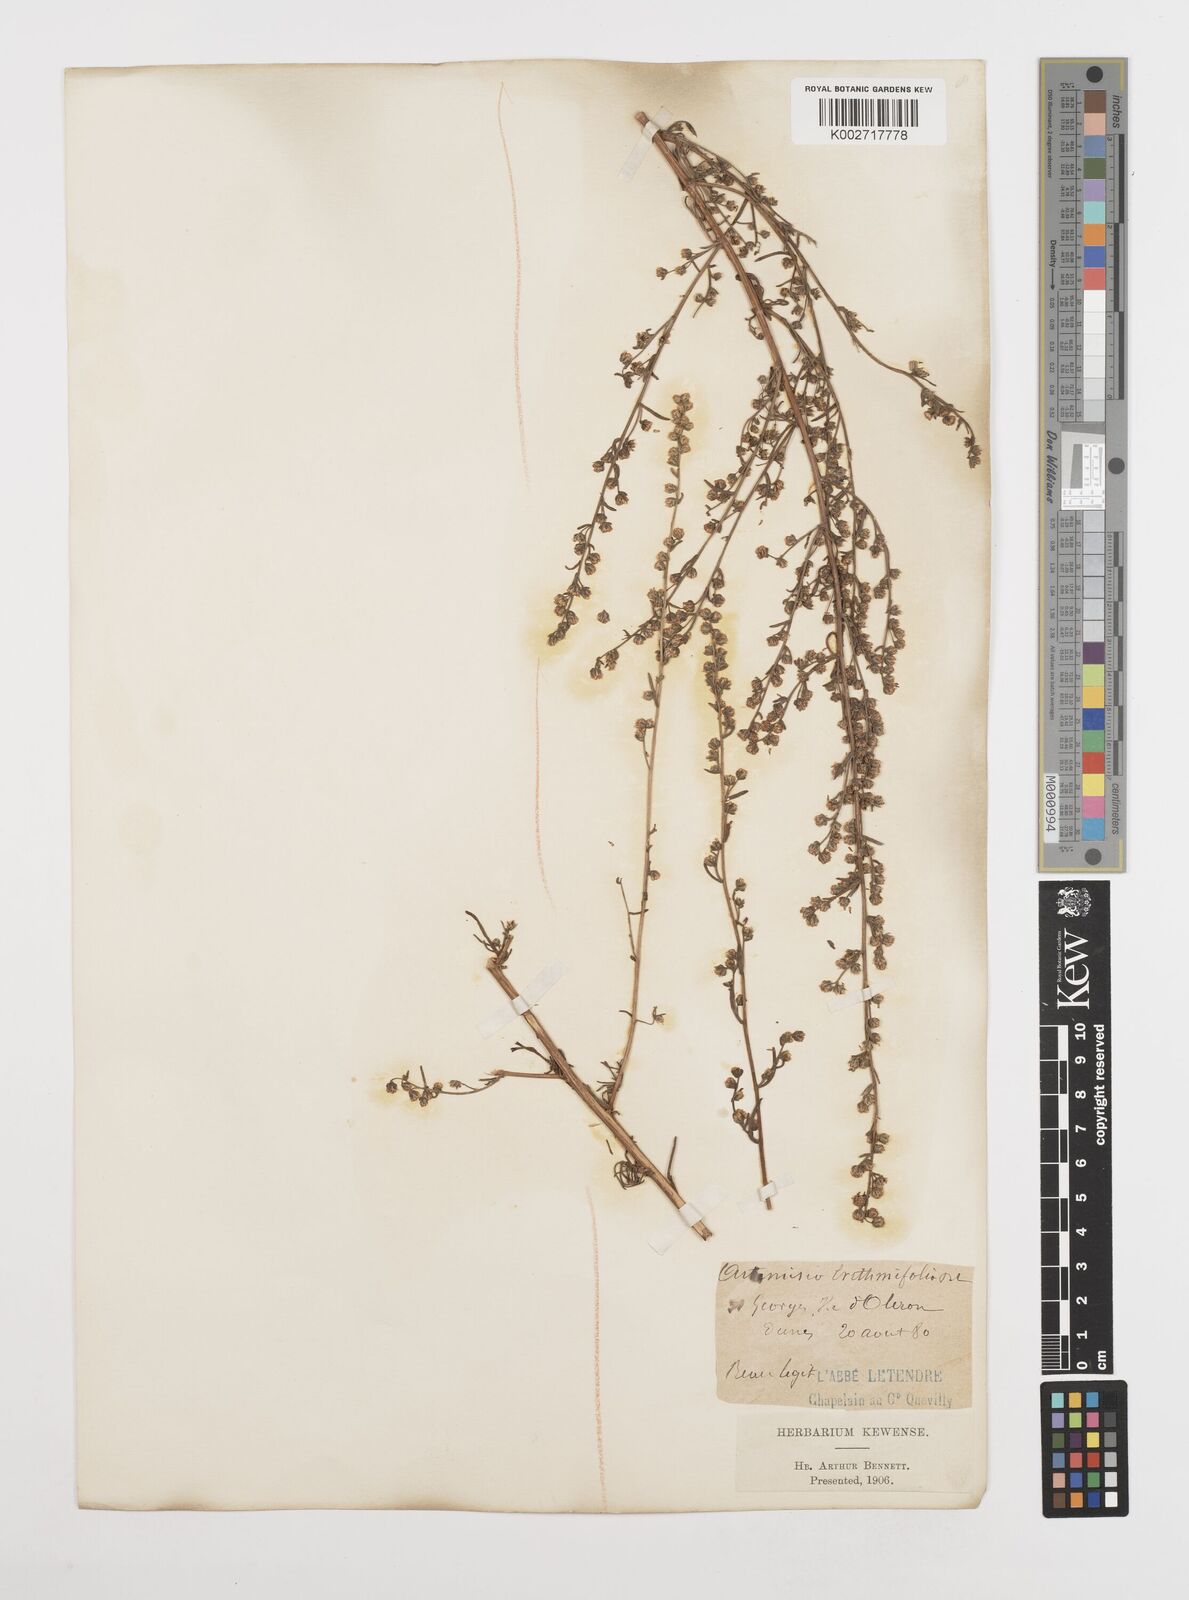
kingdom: Plantae
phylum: Tracheophyta
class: Magnoliopsida
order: Asterales
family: Asteraceae
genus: Artemisia
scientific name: Artemisia campestris
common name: Field wormwood
